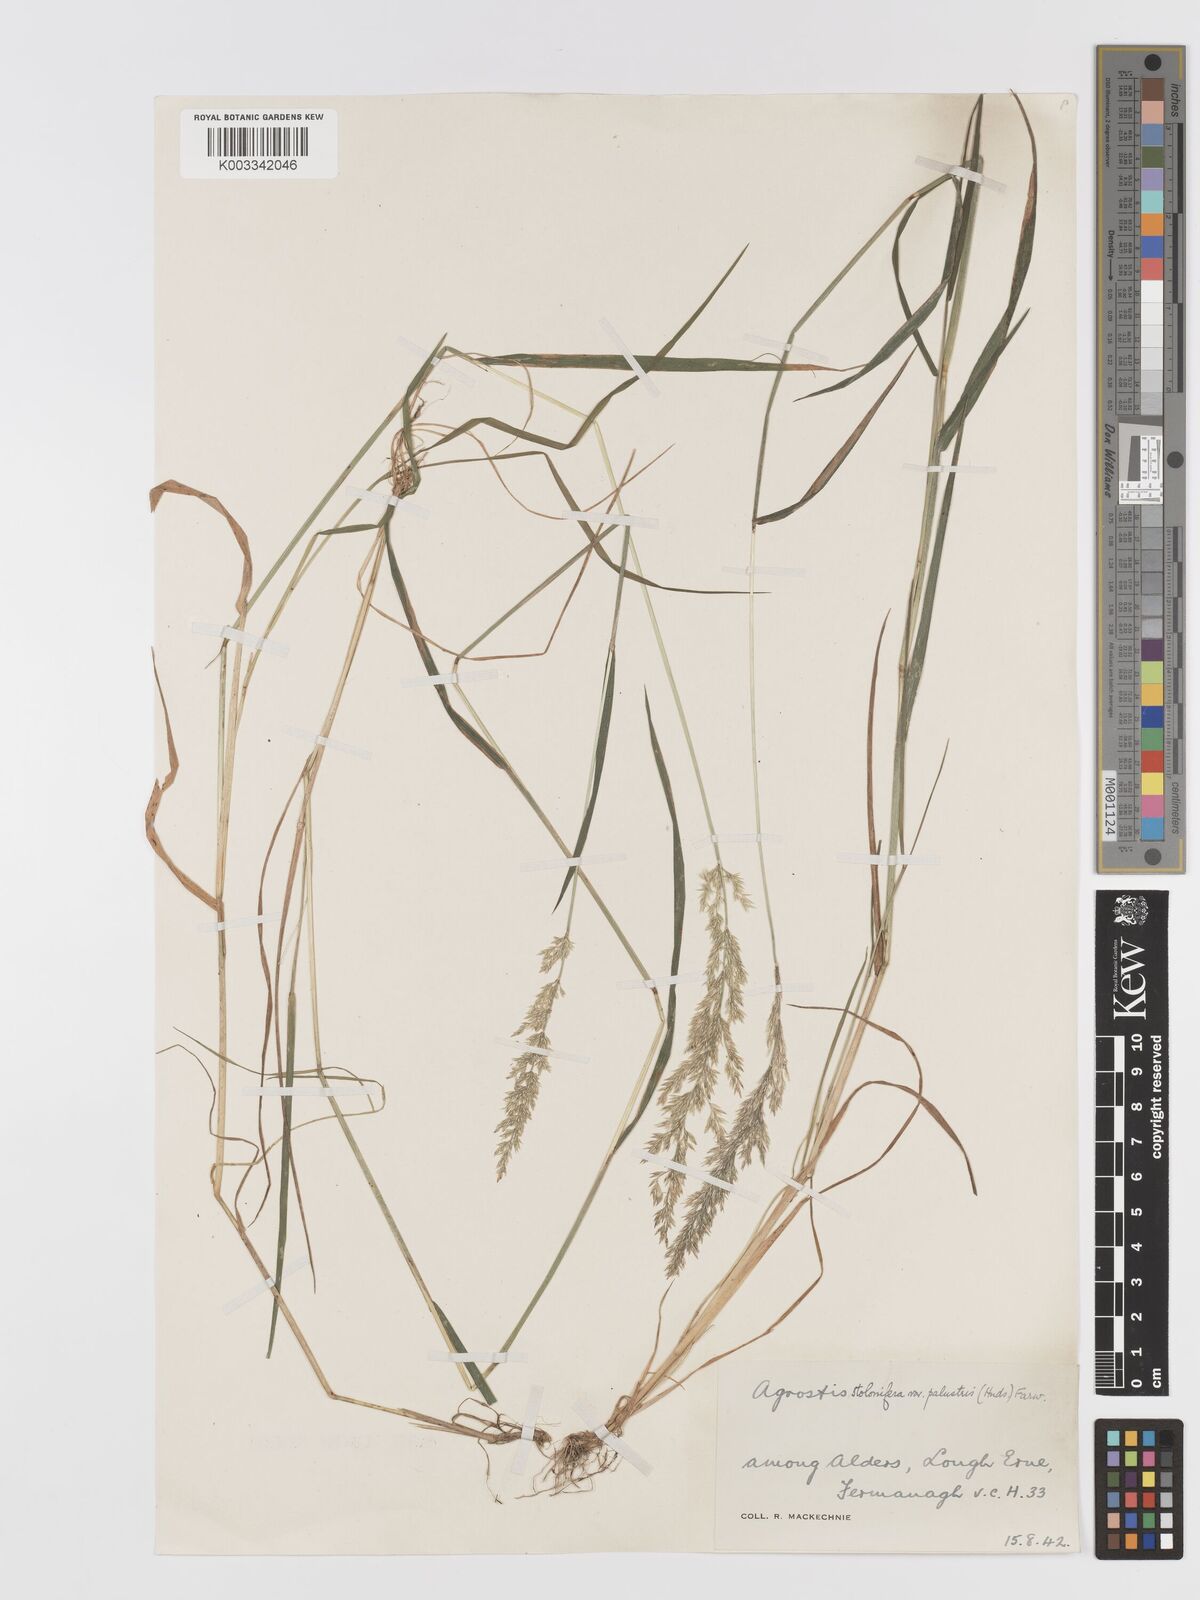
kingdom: Plantae
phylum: Tracheophyta
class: Liliopsida
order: Poales
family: Poaceae
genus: Agrostis
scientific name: Agrostis stolonifera
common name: Creeping bentgrass
